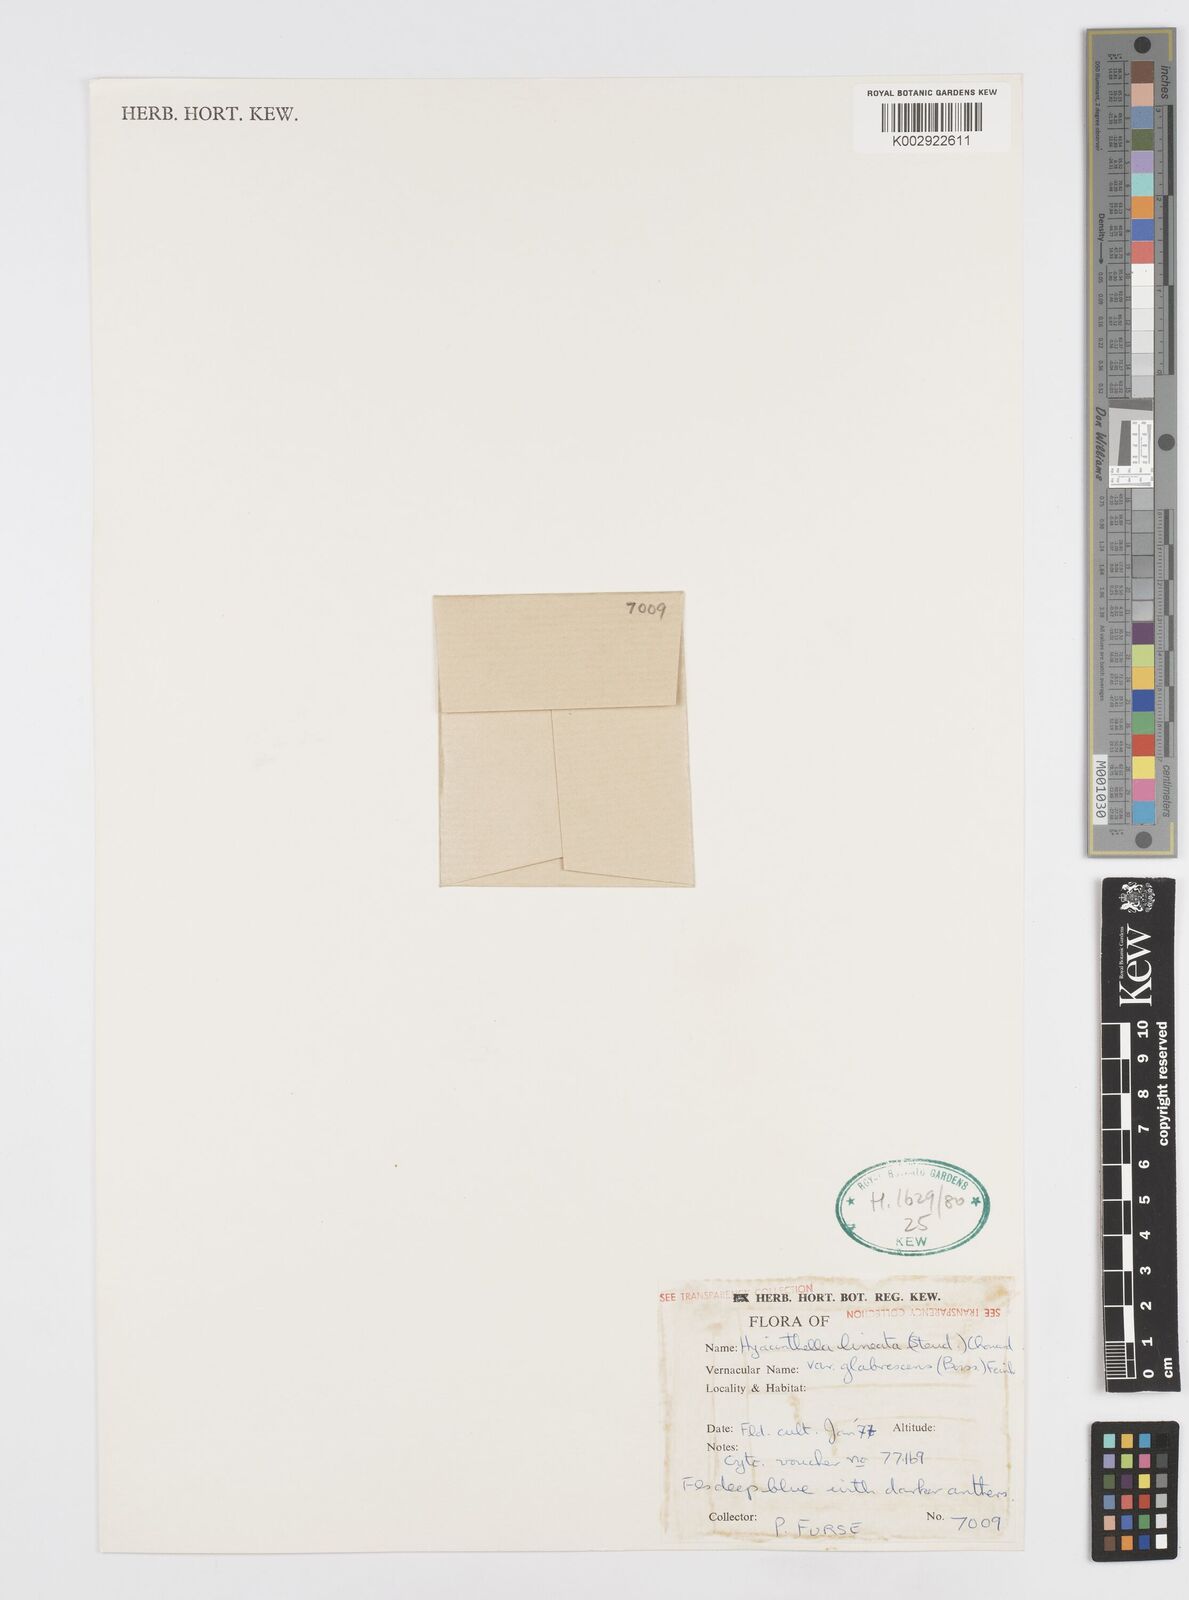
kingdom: Plantae
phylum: Tracheophyta
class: Liliopsida
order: Asparagales
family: Asparagaceae
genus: Hyacinthella
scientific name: Hyacinthella glabrescens
